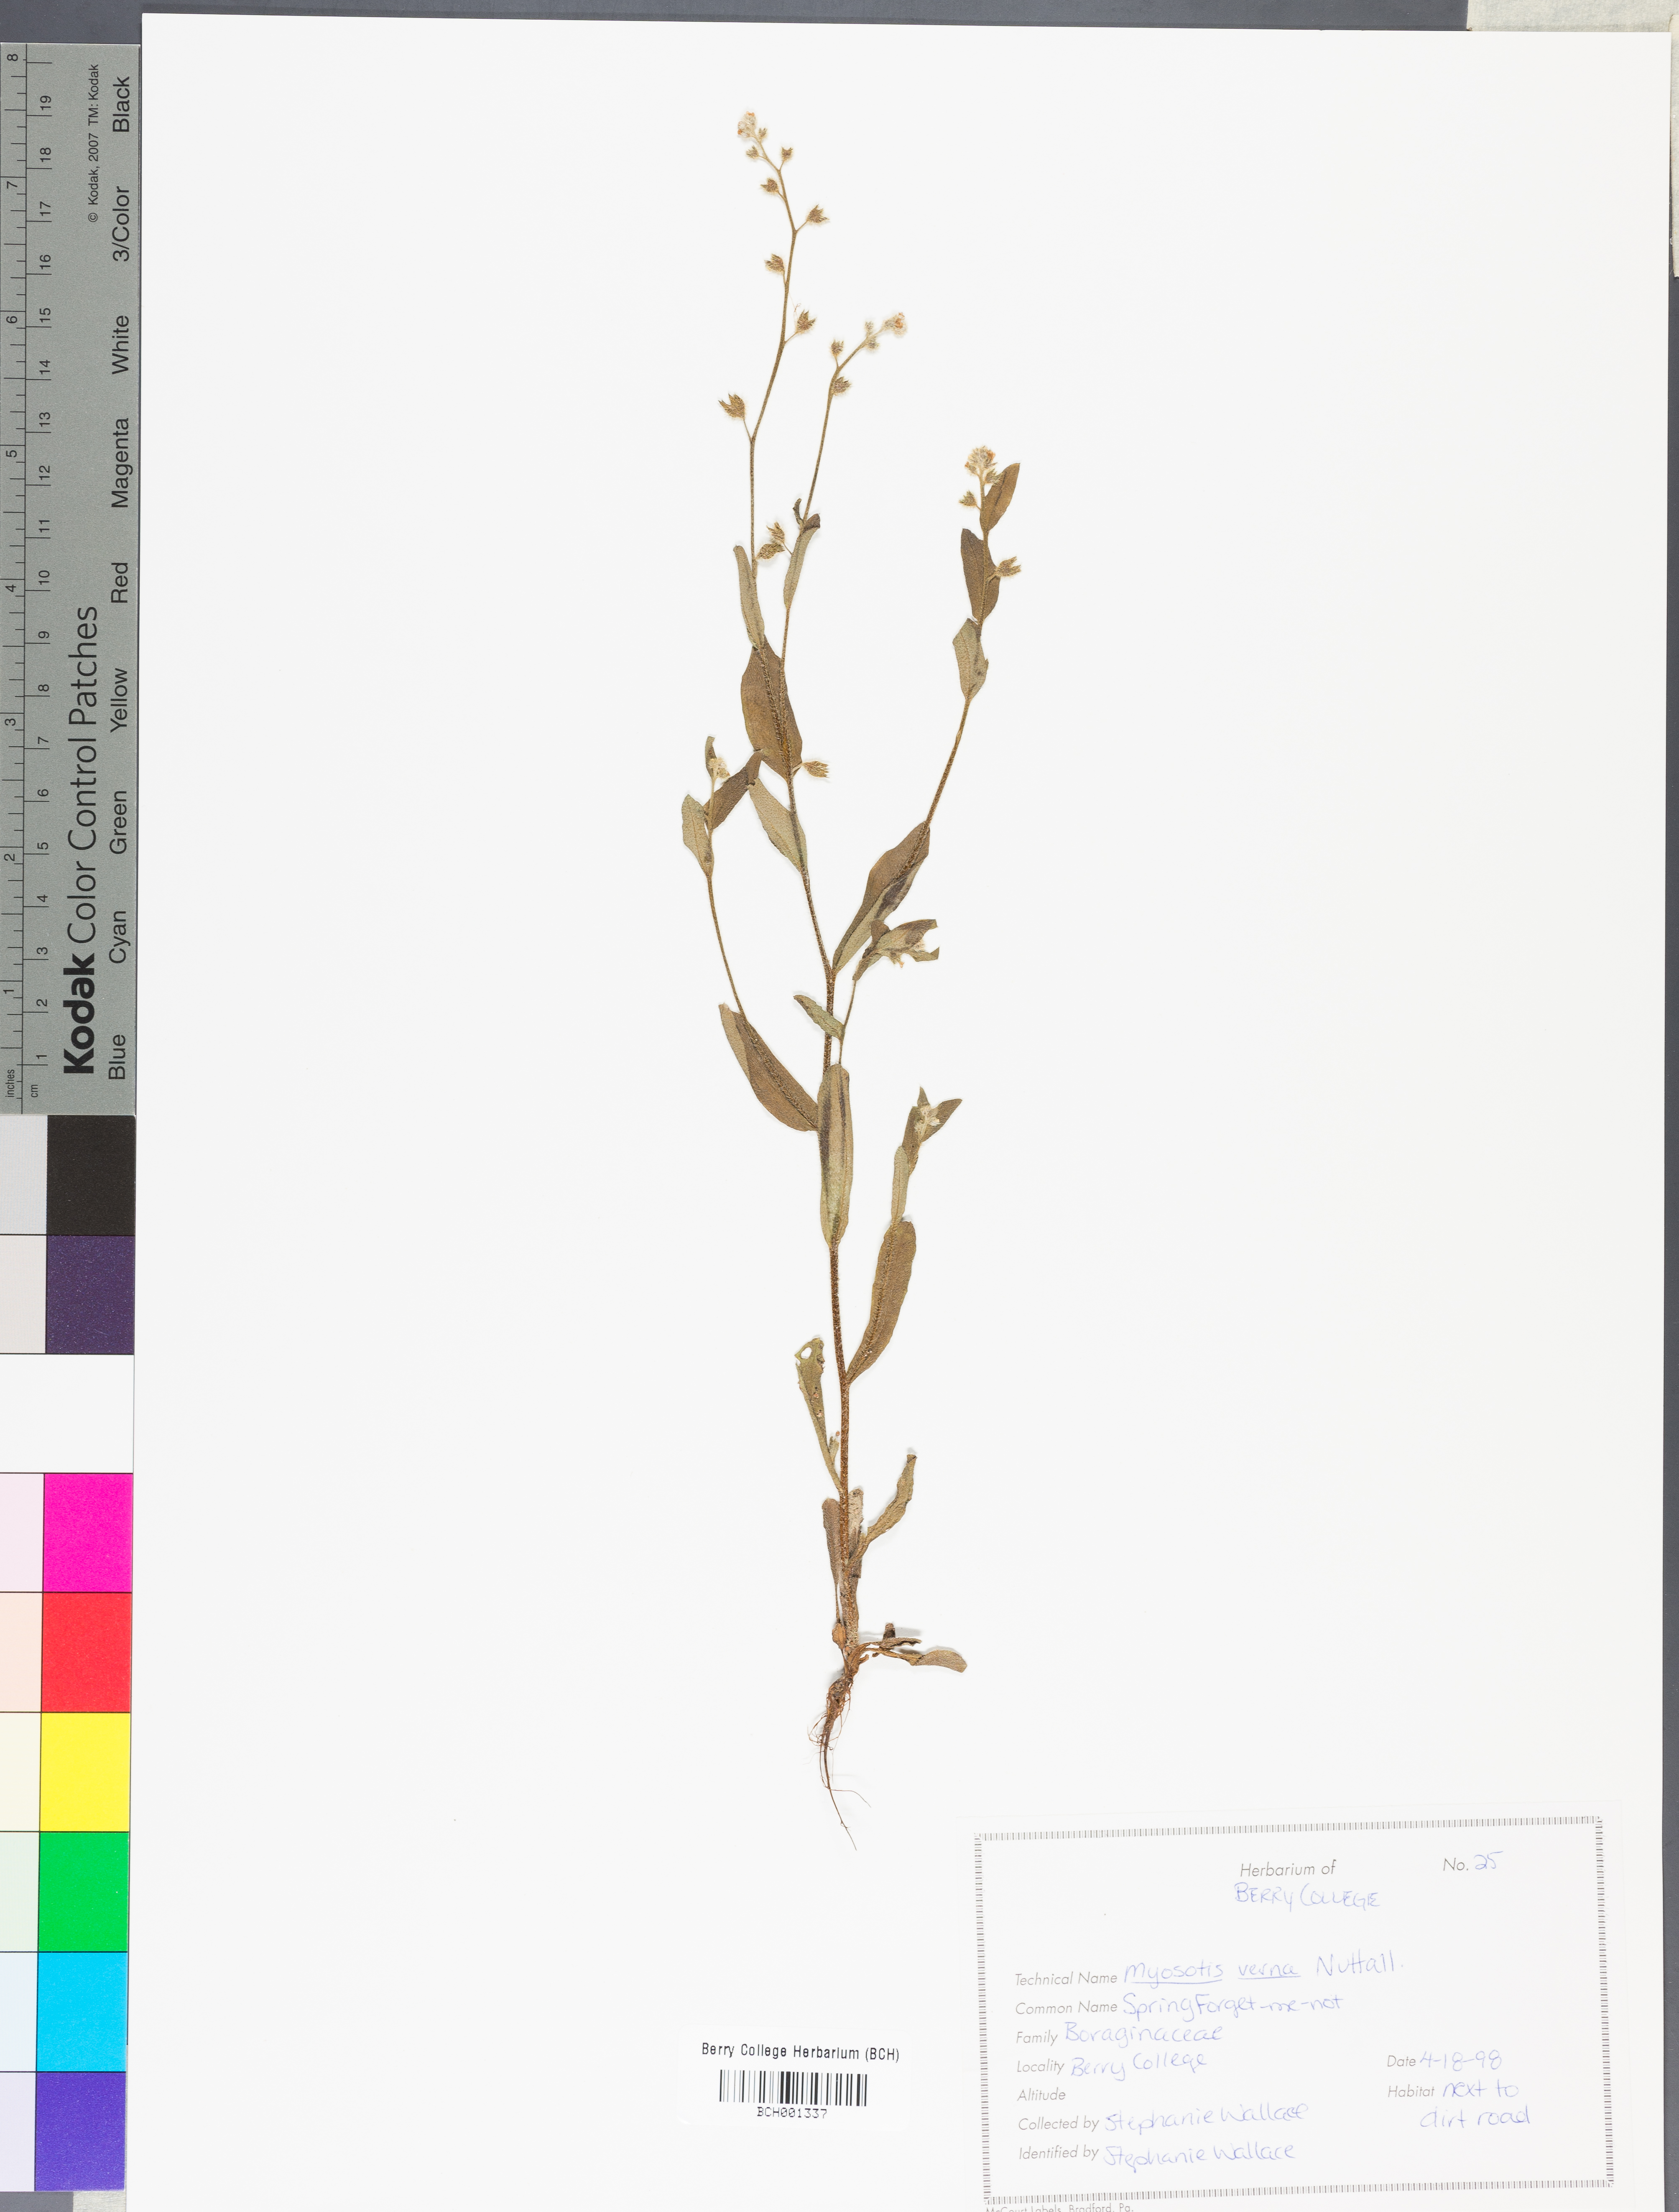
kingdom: Plantae
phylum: Tracheophyta
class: Magnoliopsida
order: Boraginales
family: Boraginaceae
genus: Myosotis
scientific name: Myosotis verna
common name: Early forget-me-not
